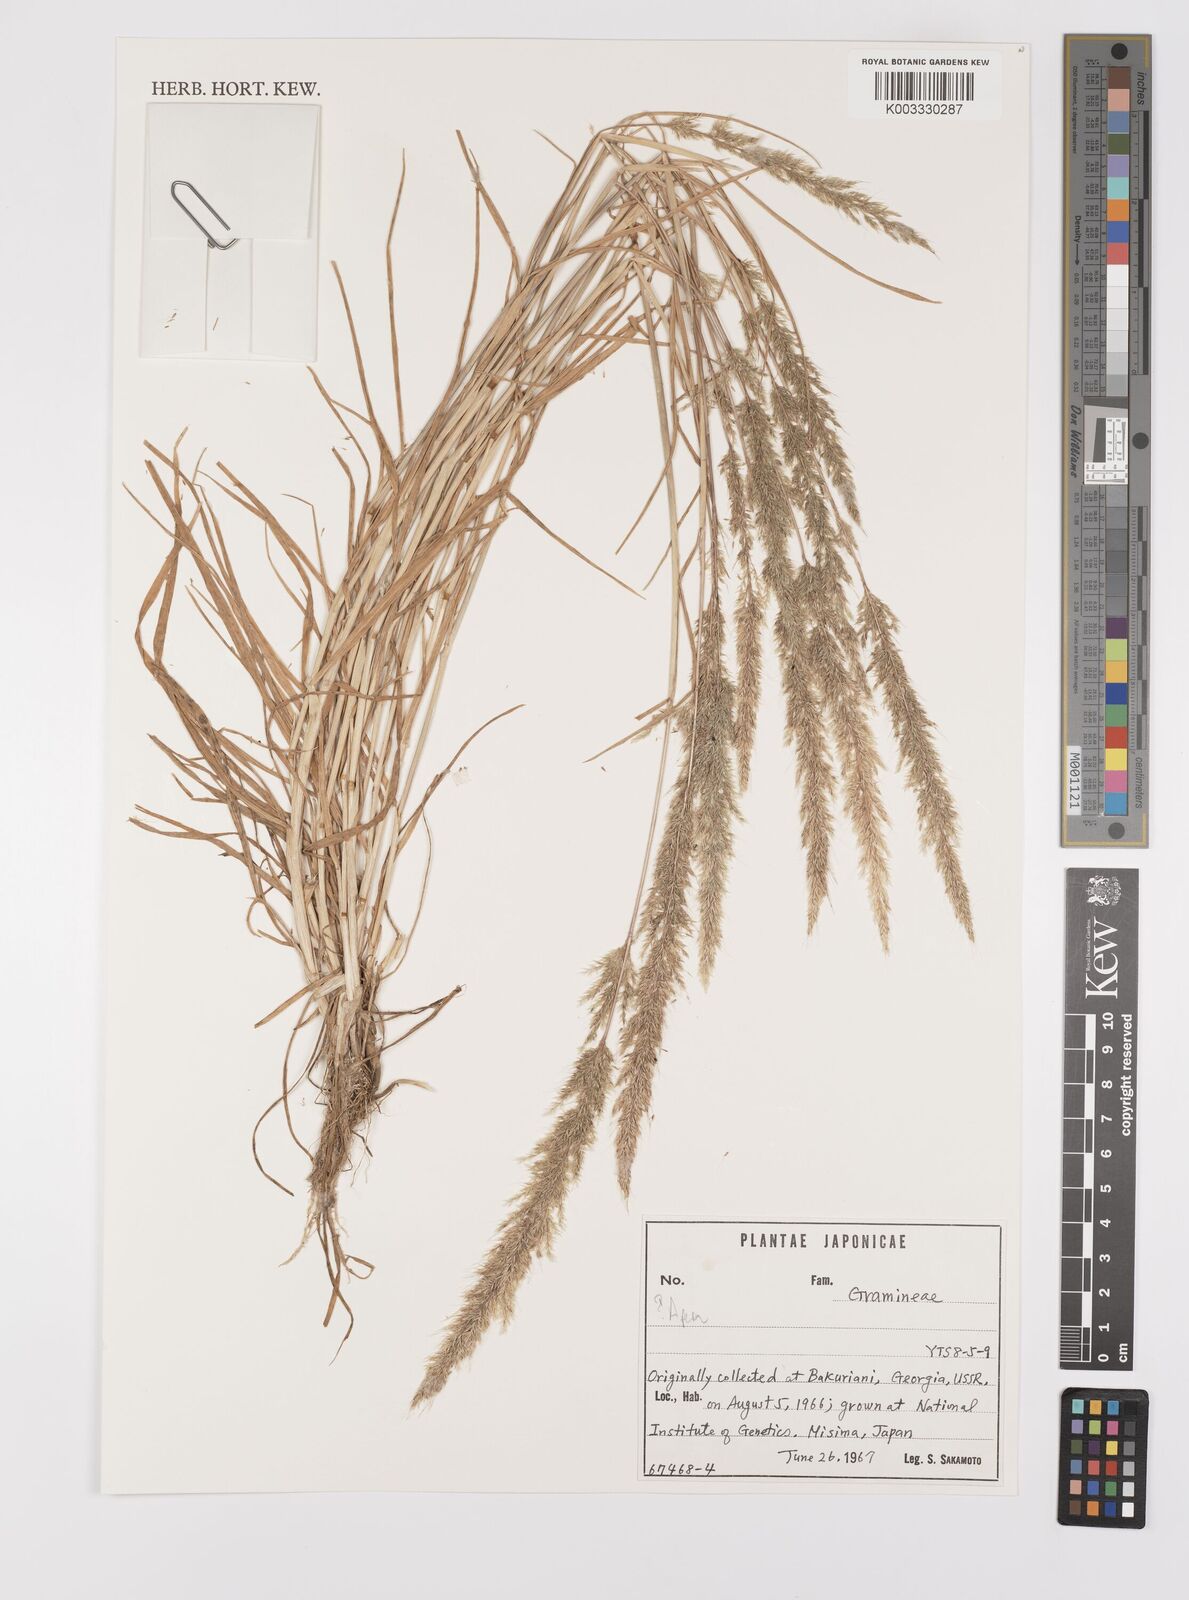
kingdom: Plantae
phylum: Tracheophyta
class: Liliopsida
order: Poales
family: Poaceae
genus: Apera
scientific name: Apera
